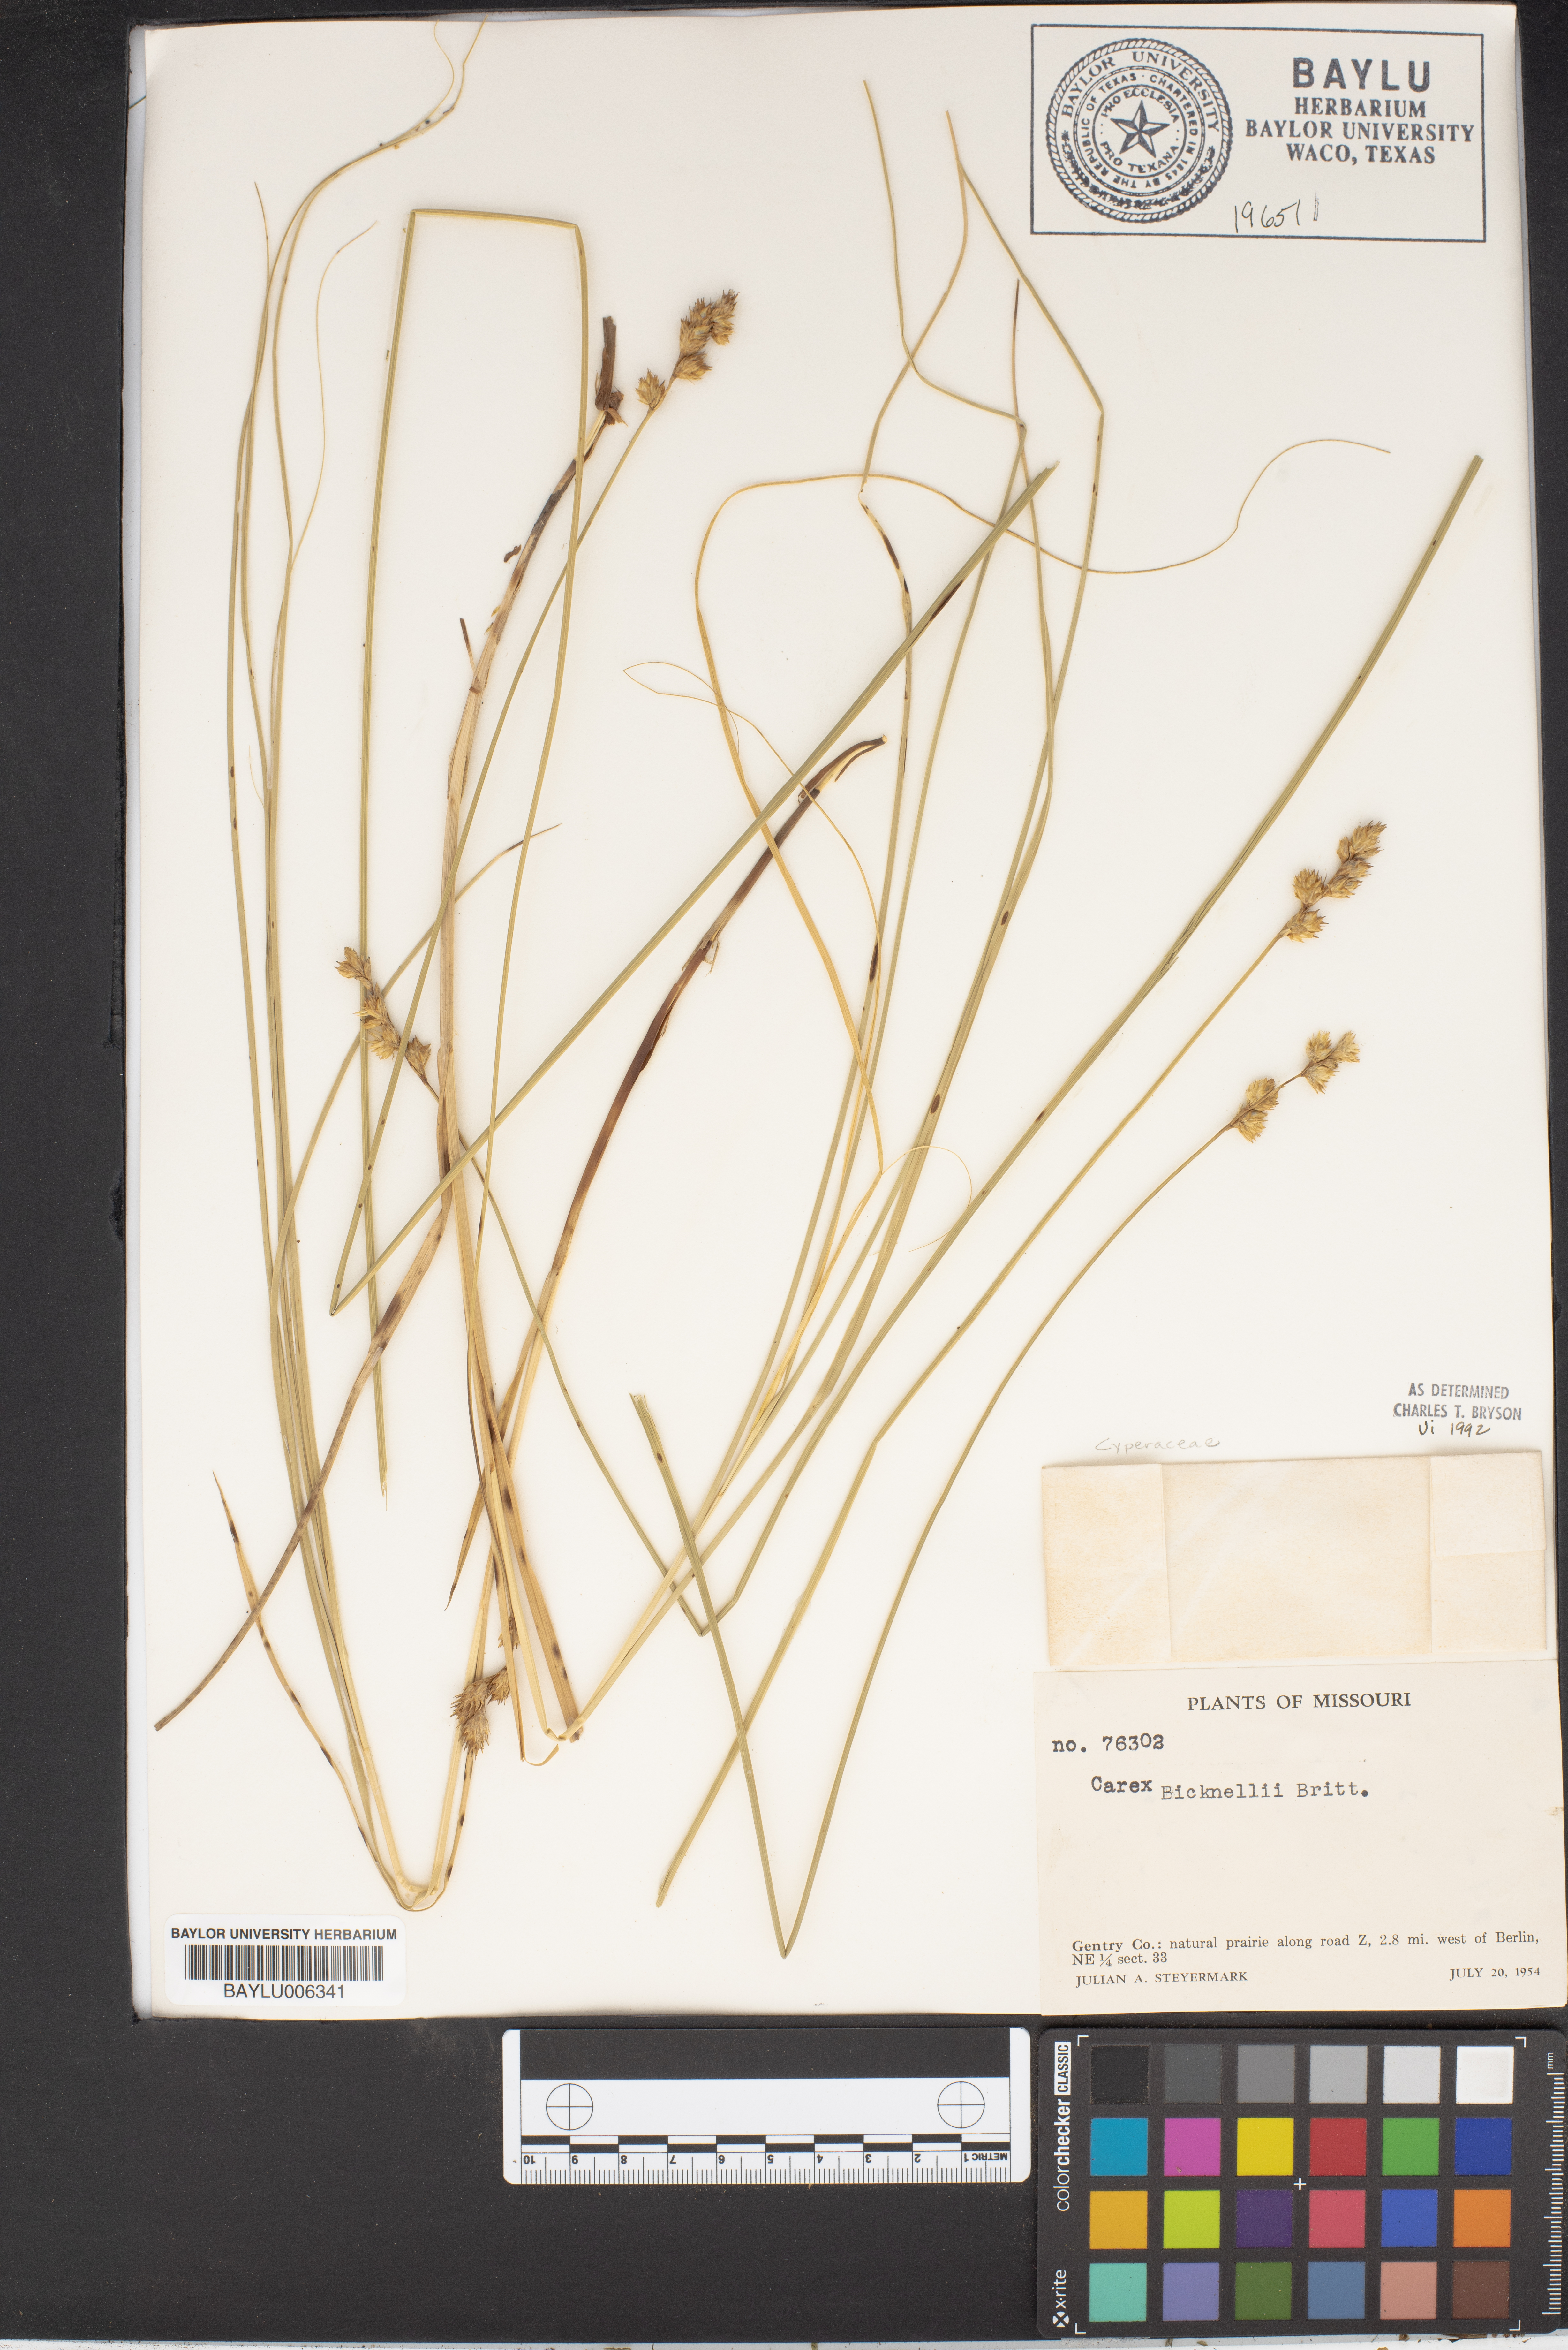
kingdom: Plantae
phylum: Tracheophyta
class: Liliopsida
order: Poales
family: Cyperaceae
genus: Carex
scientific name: Carex bicknellii
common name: Bicknell's sedge
